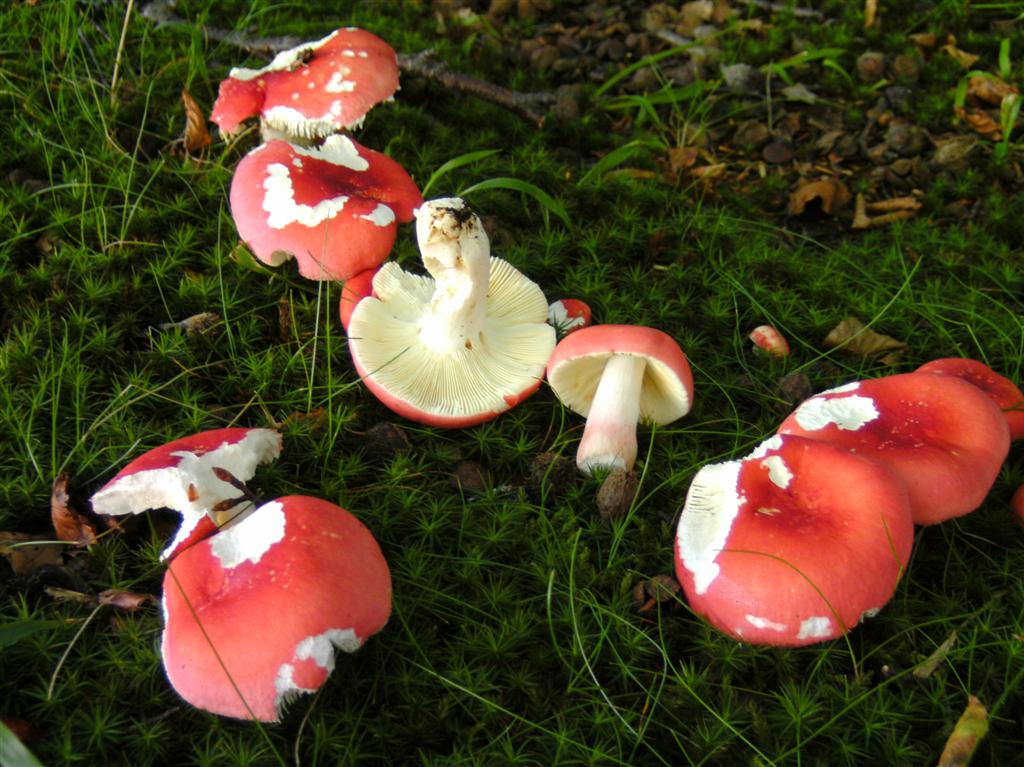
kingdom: Fungi
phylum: Basidiomycota
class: Agaricomycetes
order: Russulales
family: Russulaceae
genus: Russula
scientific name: Russula rosea
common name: fastkødet skørhat
